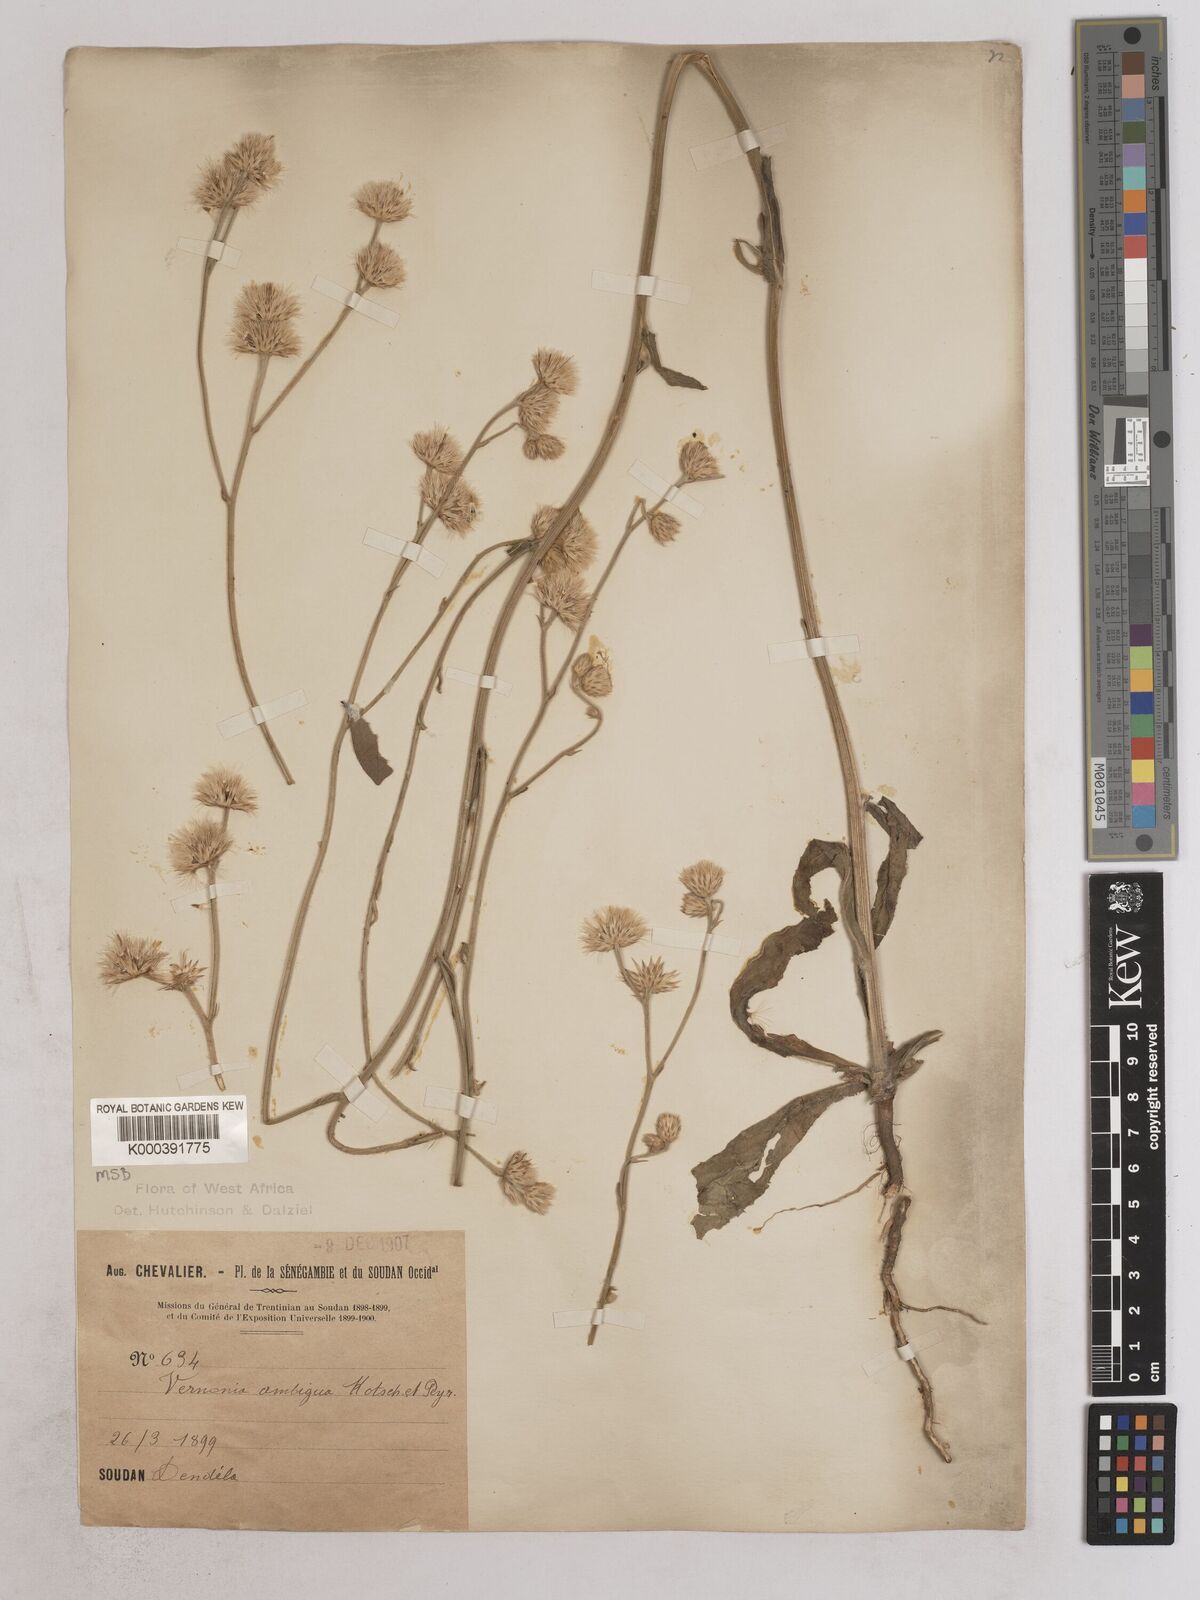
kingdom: Plantae
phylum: Tracheophyta
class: Magnoliopsida
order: Asterales
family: Asteraceae
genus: Vernoniastrum
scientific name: Vernoniastrum ambiguum
